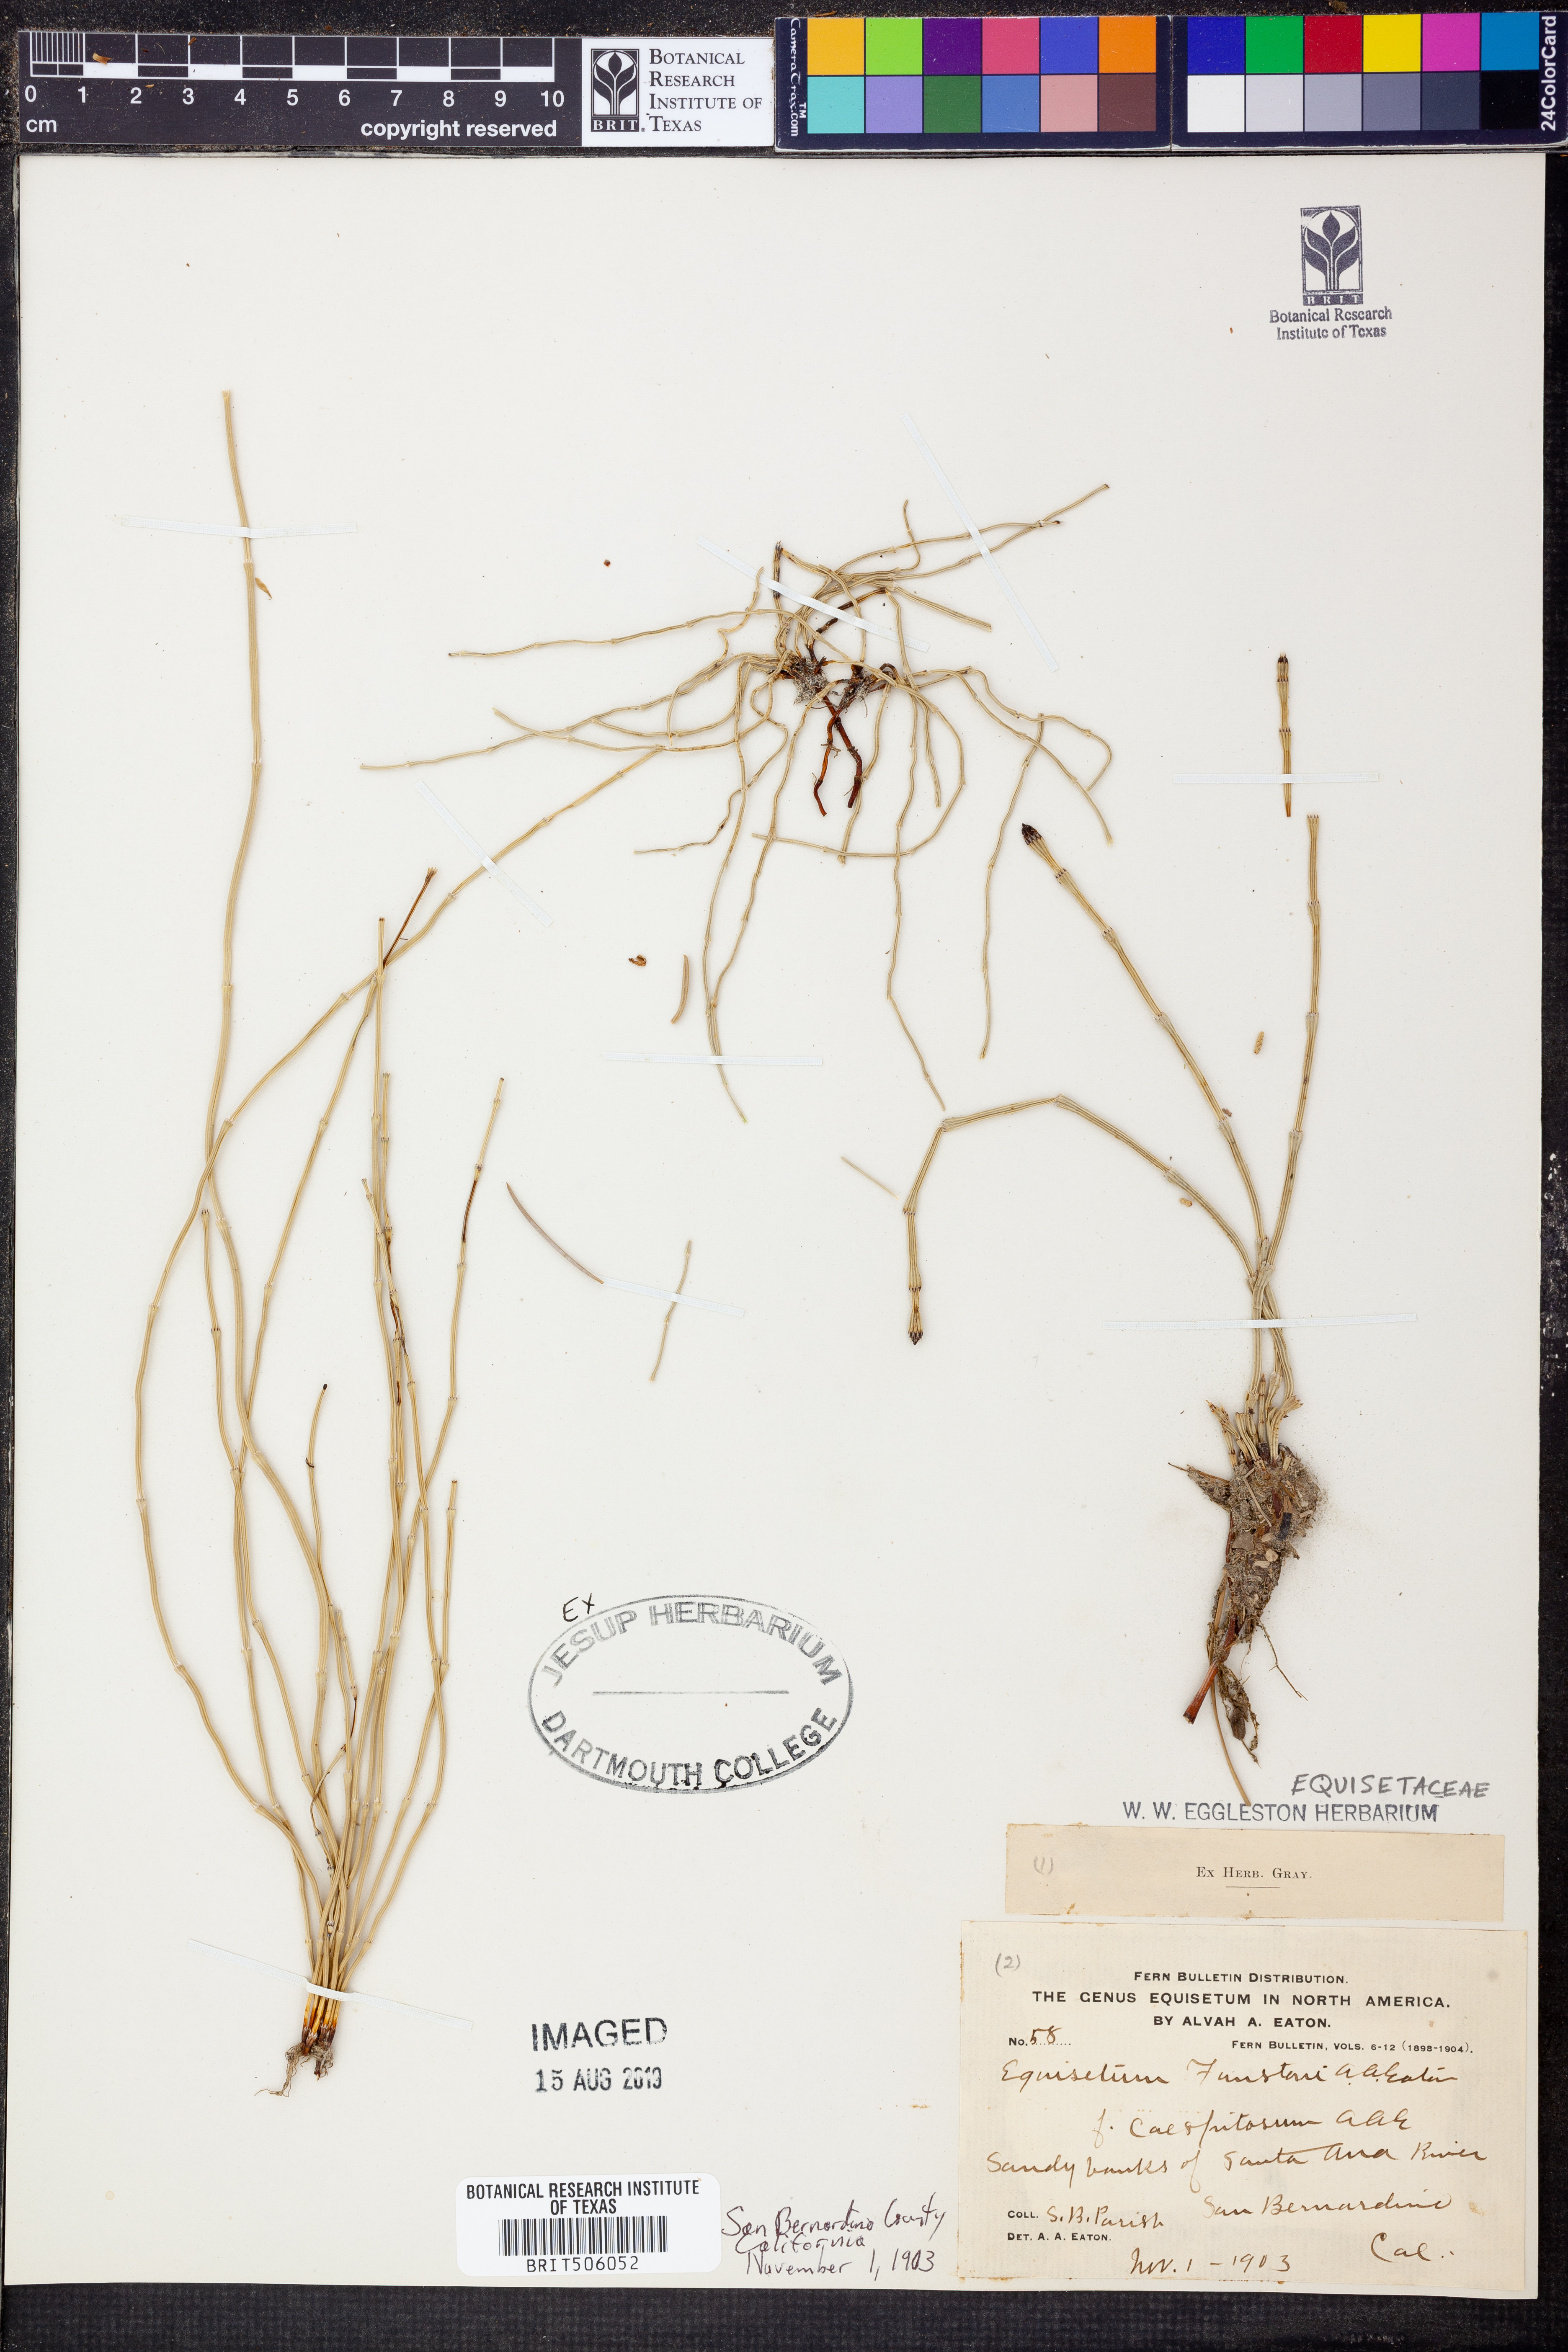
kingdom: Plantae
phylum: Tracheophyta
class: Polypodiopsida
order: Equisetales
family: Equisetaceae
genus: Equisetum
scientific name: Equisetum laevigatum
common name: Smooth scouring-rush
